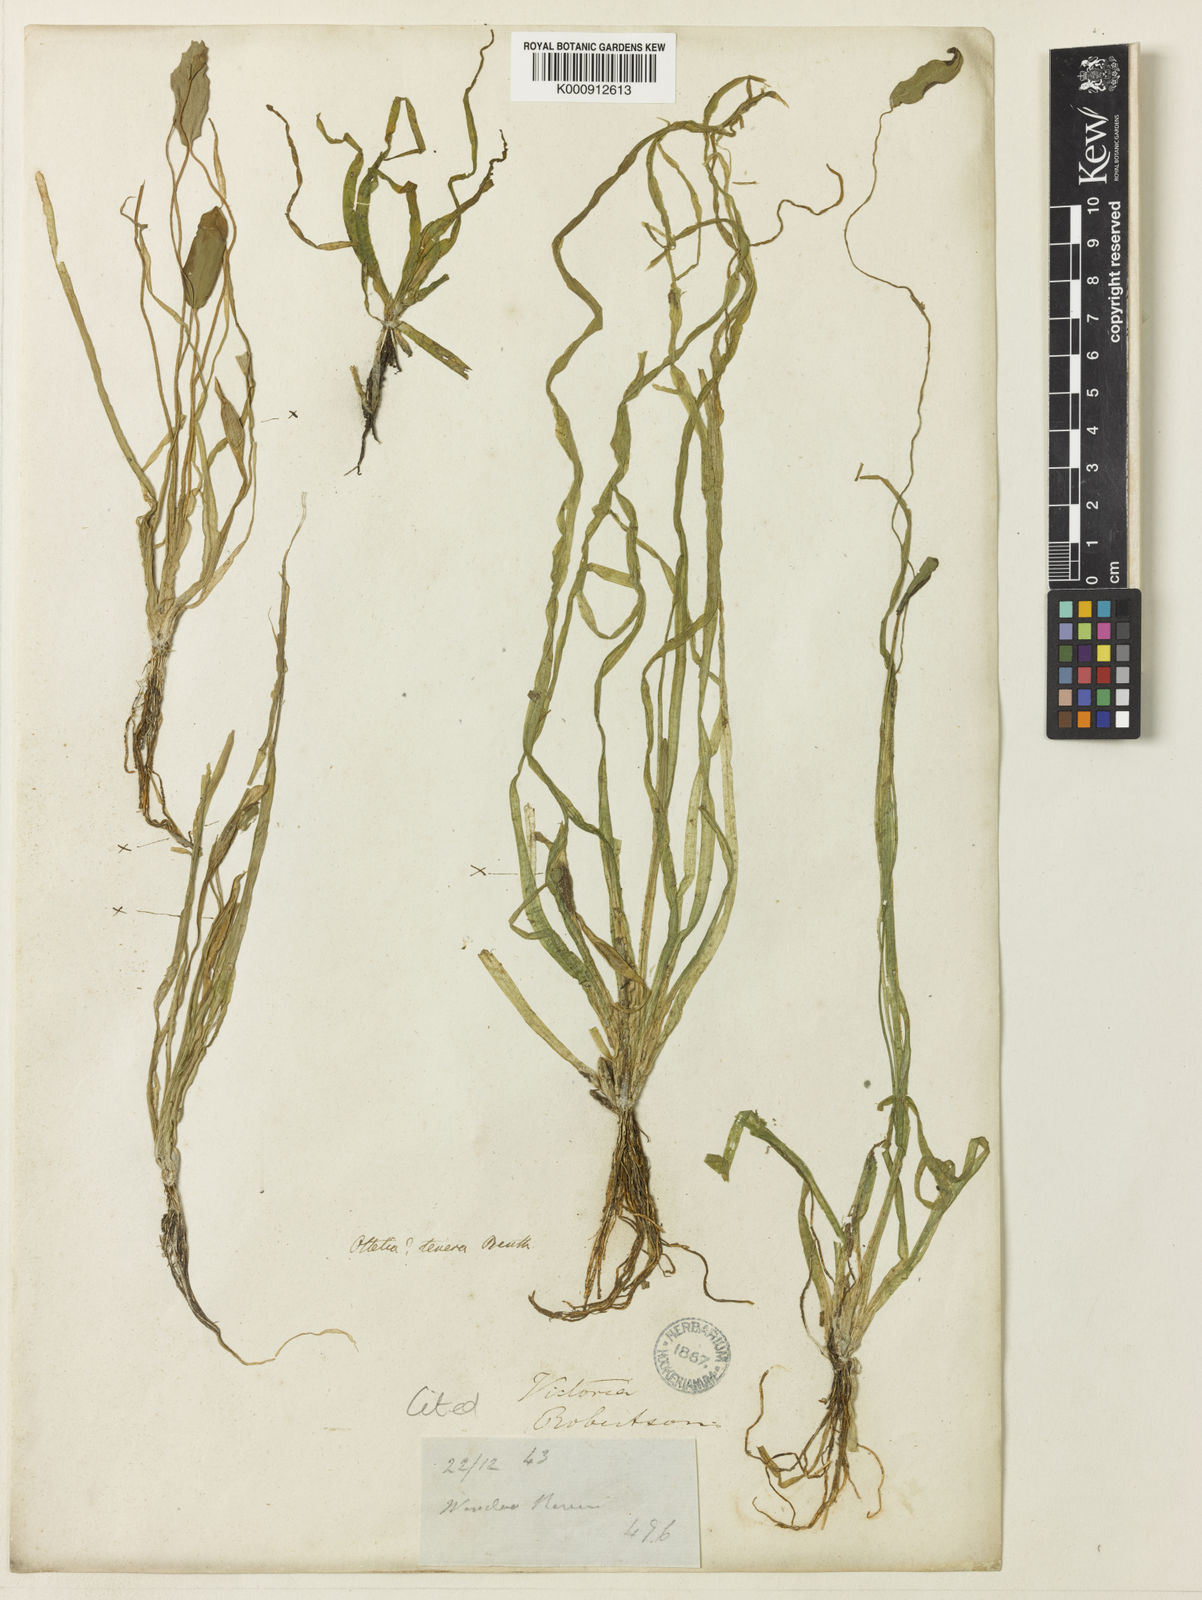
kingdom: Plantae
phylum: Tracheophyta
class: Liliopsida
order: Alismatales
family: Hydrocharitaceae
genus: Ottelia
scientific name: Ottelia ovalifolia
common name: Swamp-lily
